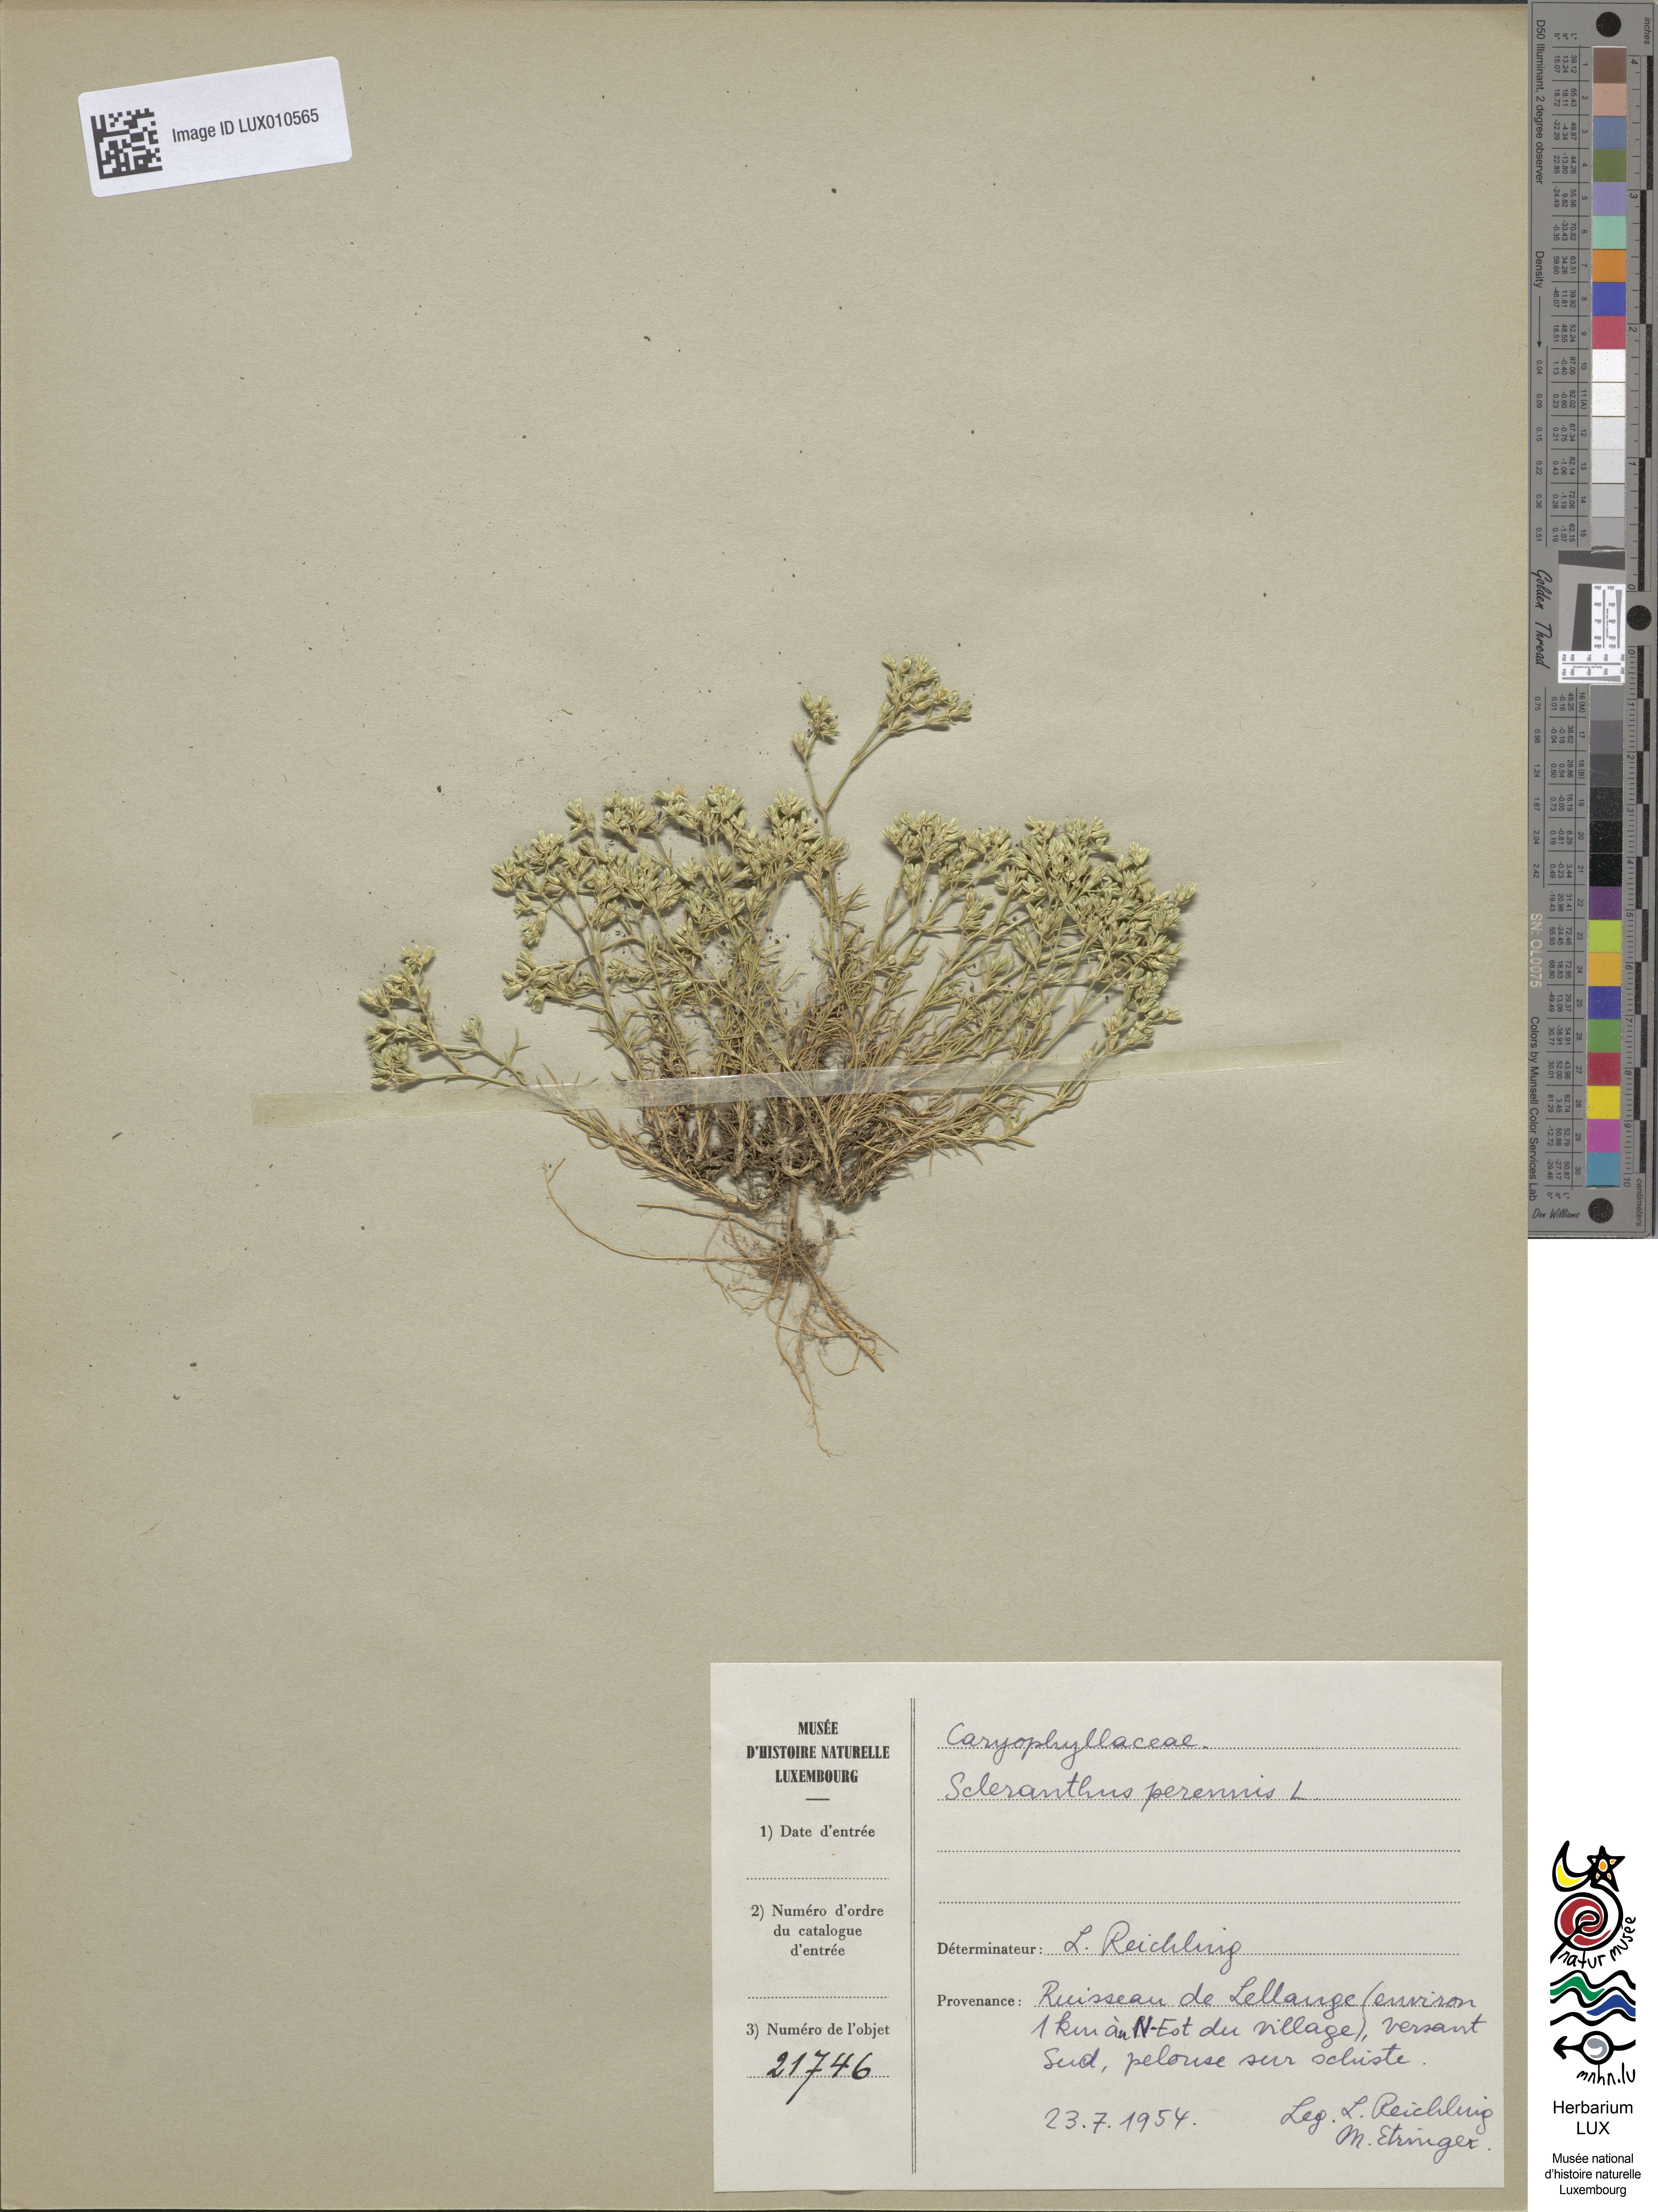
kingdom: Plantae
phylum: Tracheophyta
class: Magnoliopsida
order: Caryophyllales
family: Caryophyllaceae
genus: Scleranthus
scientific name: Scleranthus perennis
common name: Perennial knawel
